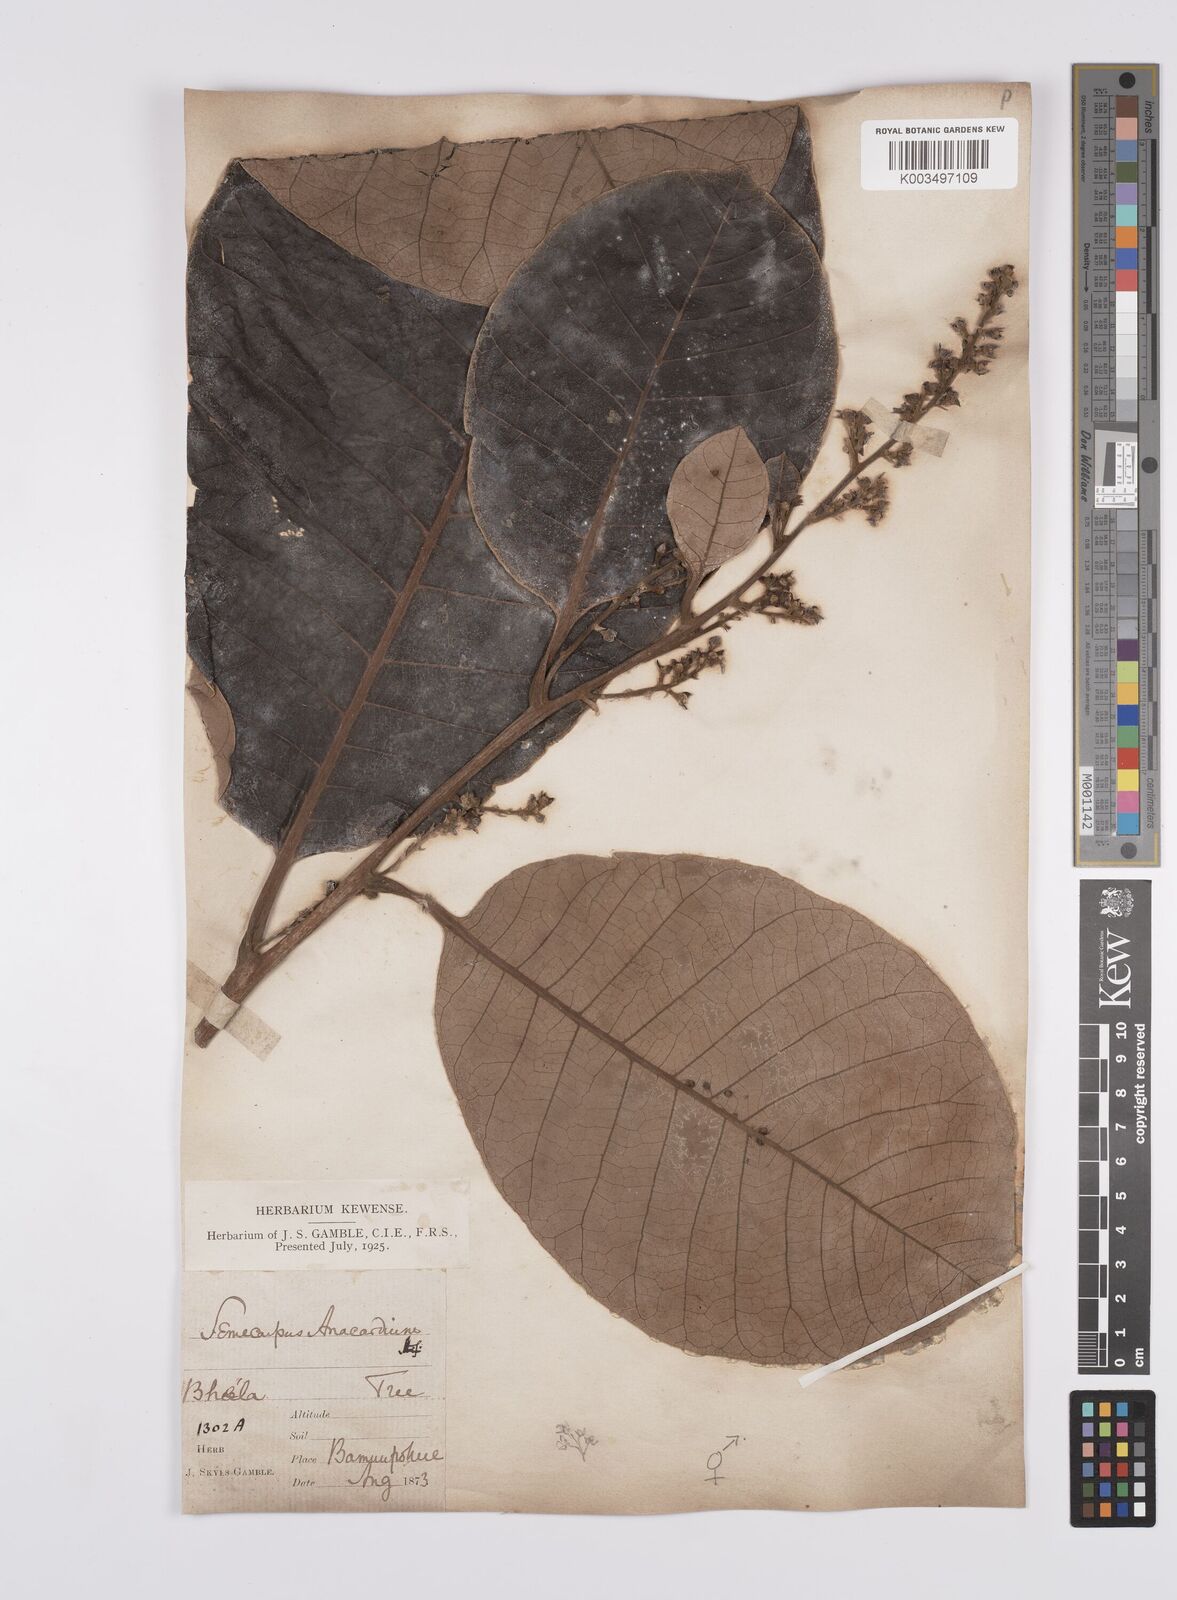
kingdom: Plantae
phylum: Tracheophyta
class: Magnoliopsida
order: Sapindales
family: Anacardiaceae
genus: Semecarpus
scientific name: Semecarpus anacardium
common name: Marking nut-tree
